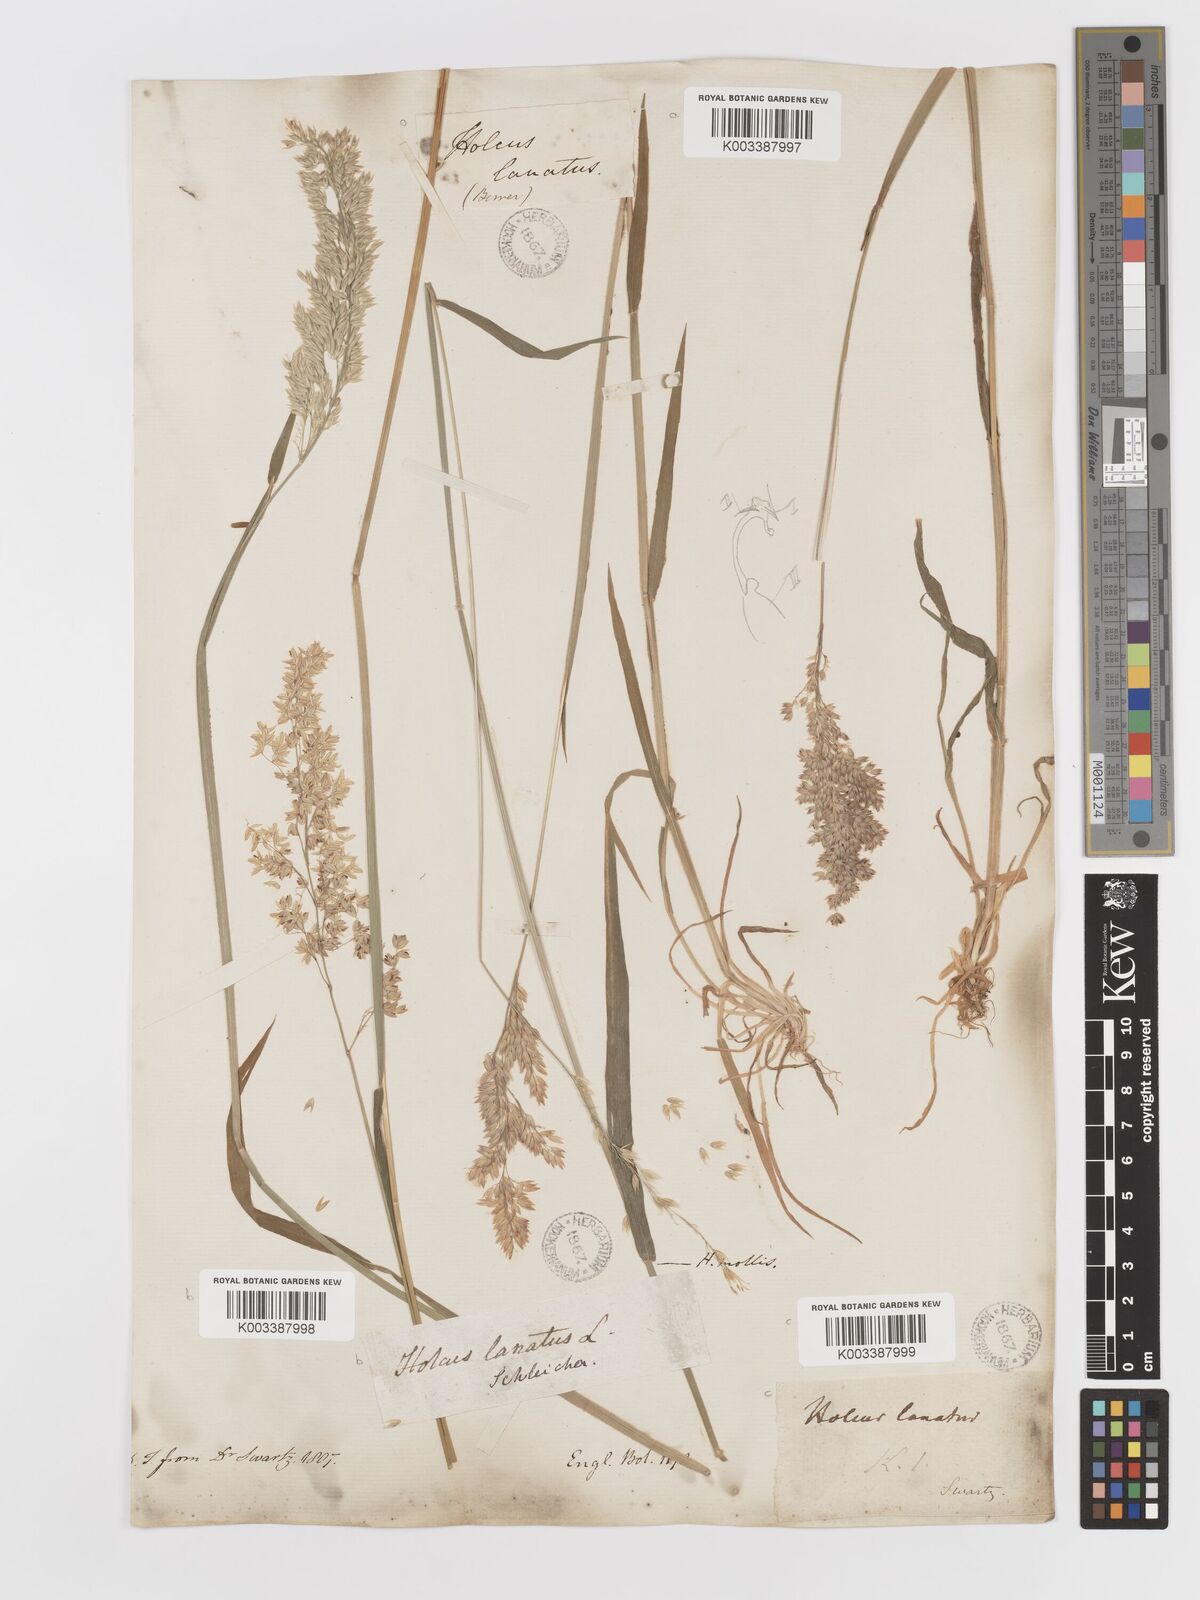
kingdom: Plantae
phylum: Tracheophyta
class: Liliopsida
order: Poales
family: Poaceae
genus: Holcus
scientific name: Holcus lanatus
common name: Yorkshire-fog
